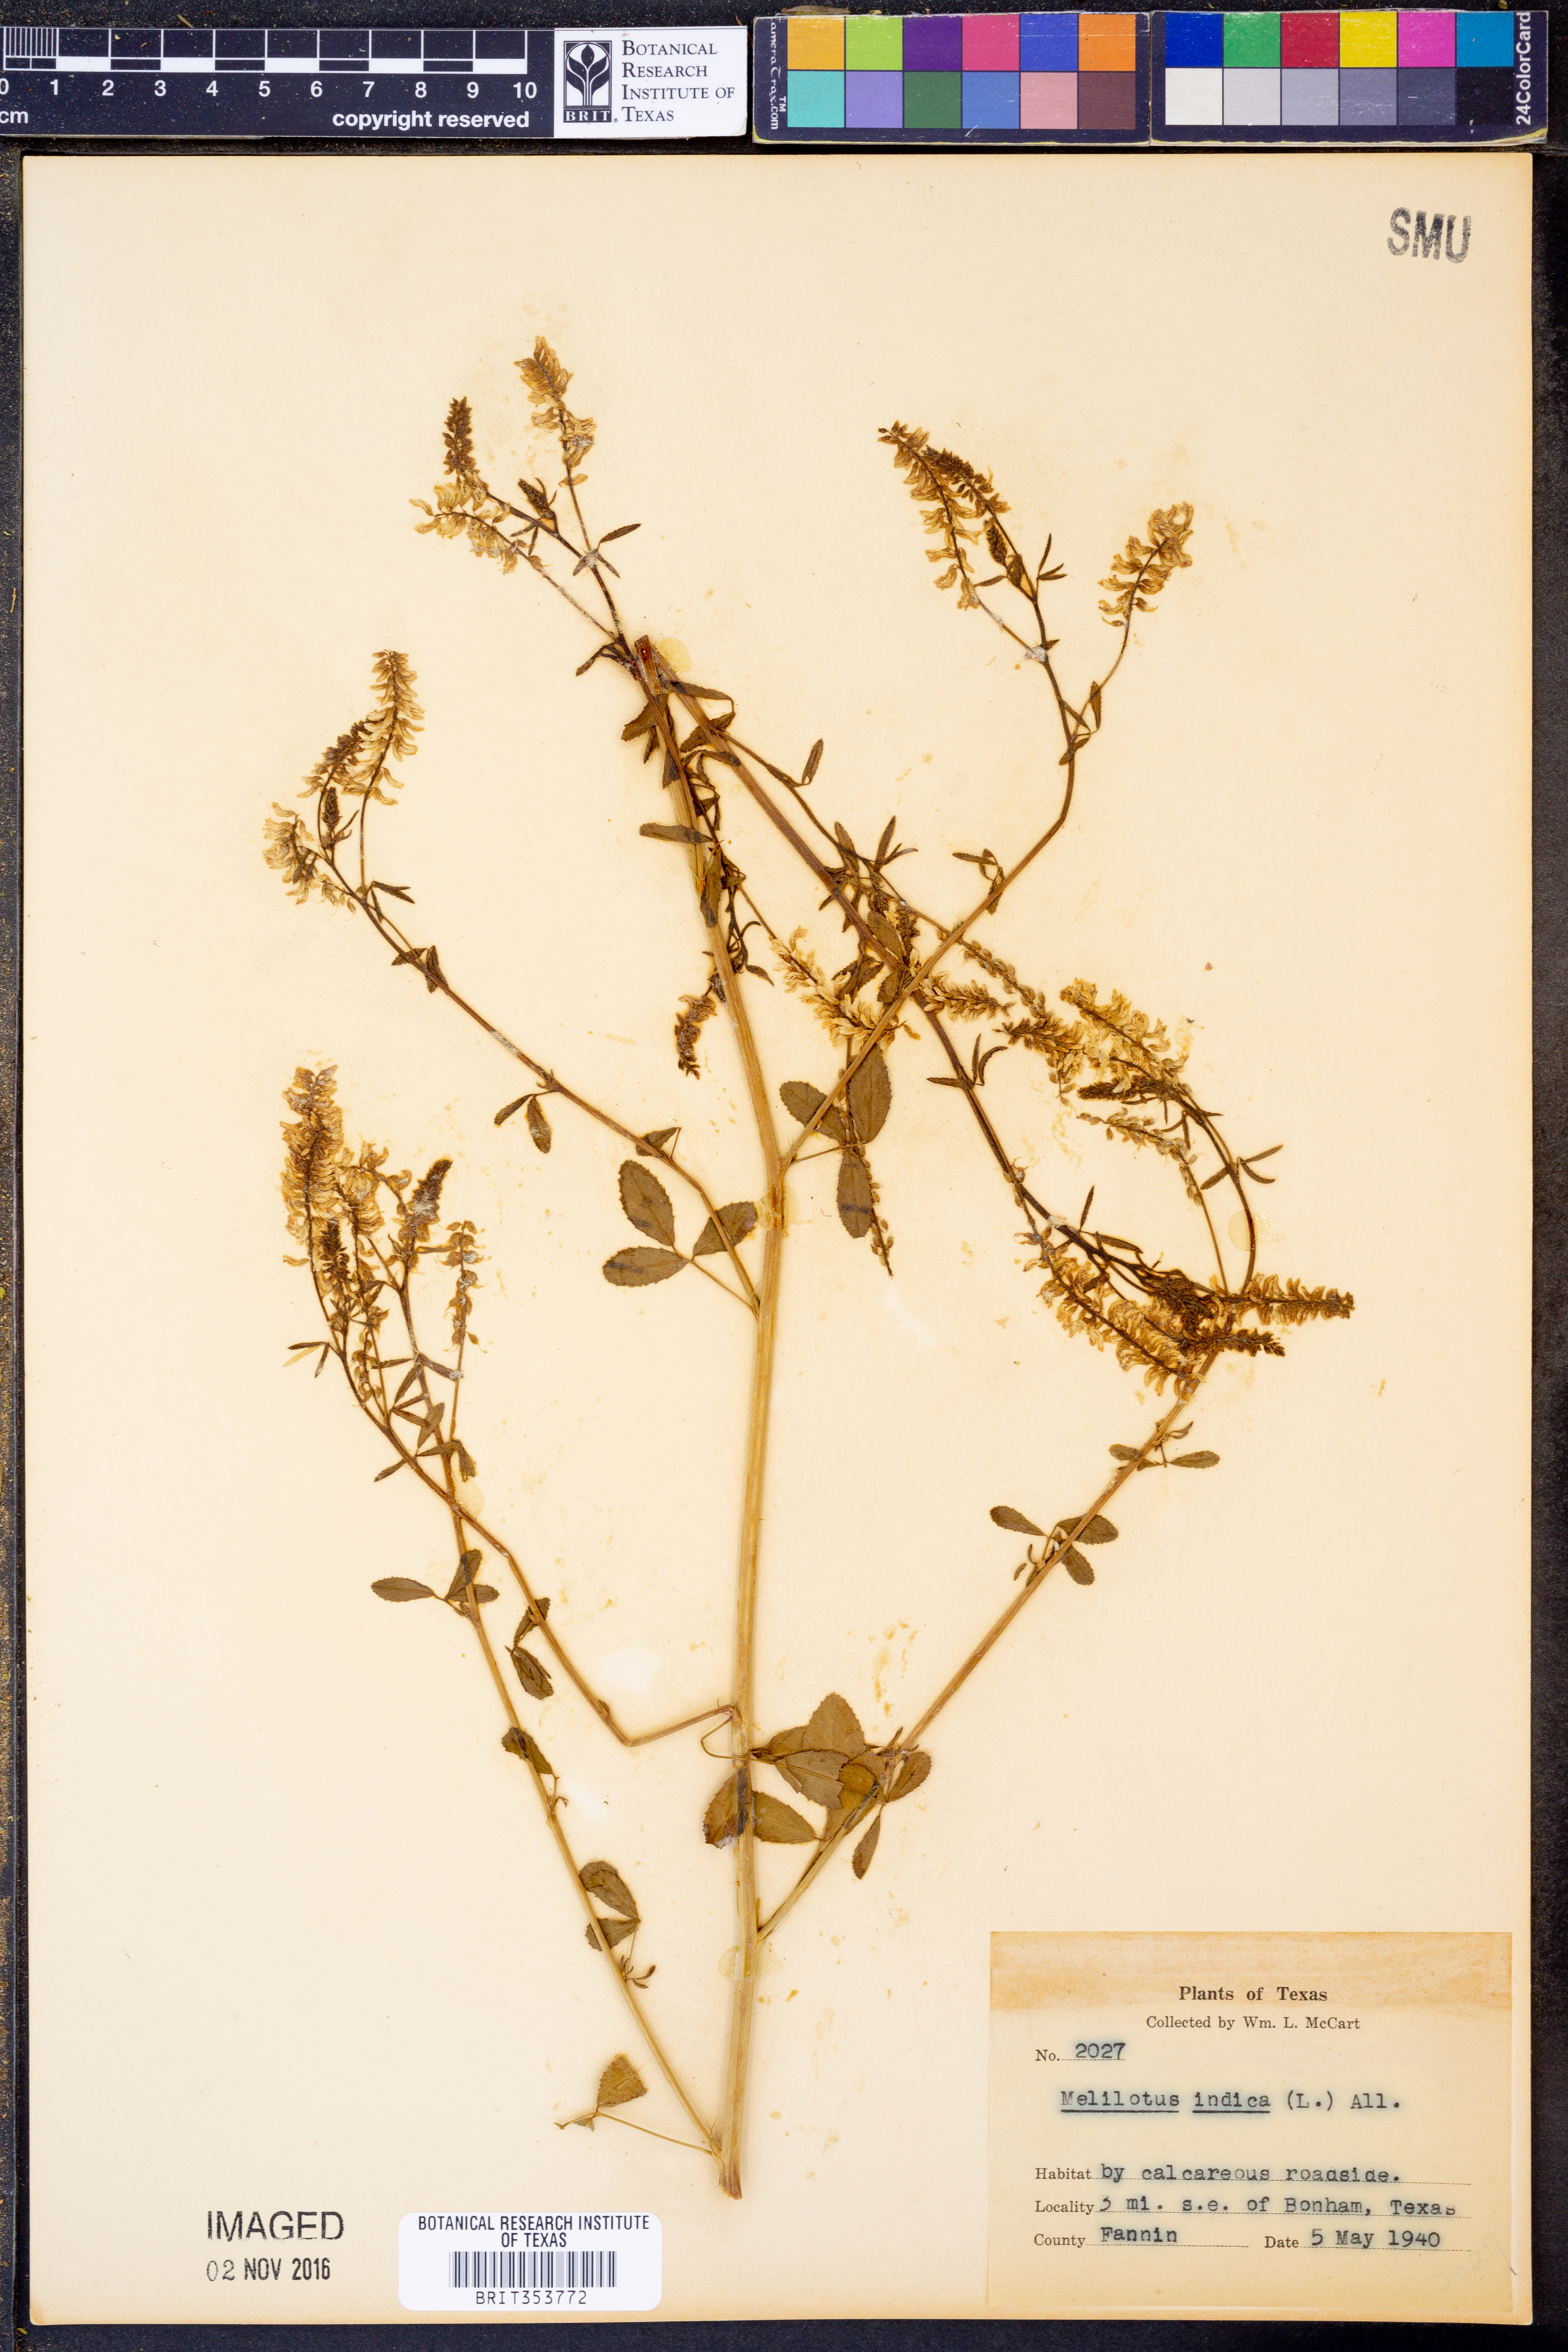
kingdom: Plantae
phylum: Tracheophyta
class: Magnoliopsida
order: Fabales
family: Fabaceae
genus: Melilotus
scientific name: Melilotus indicus
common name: Small melilot
